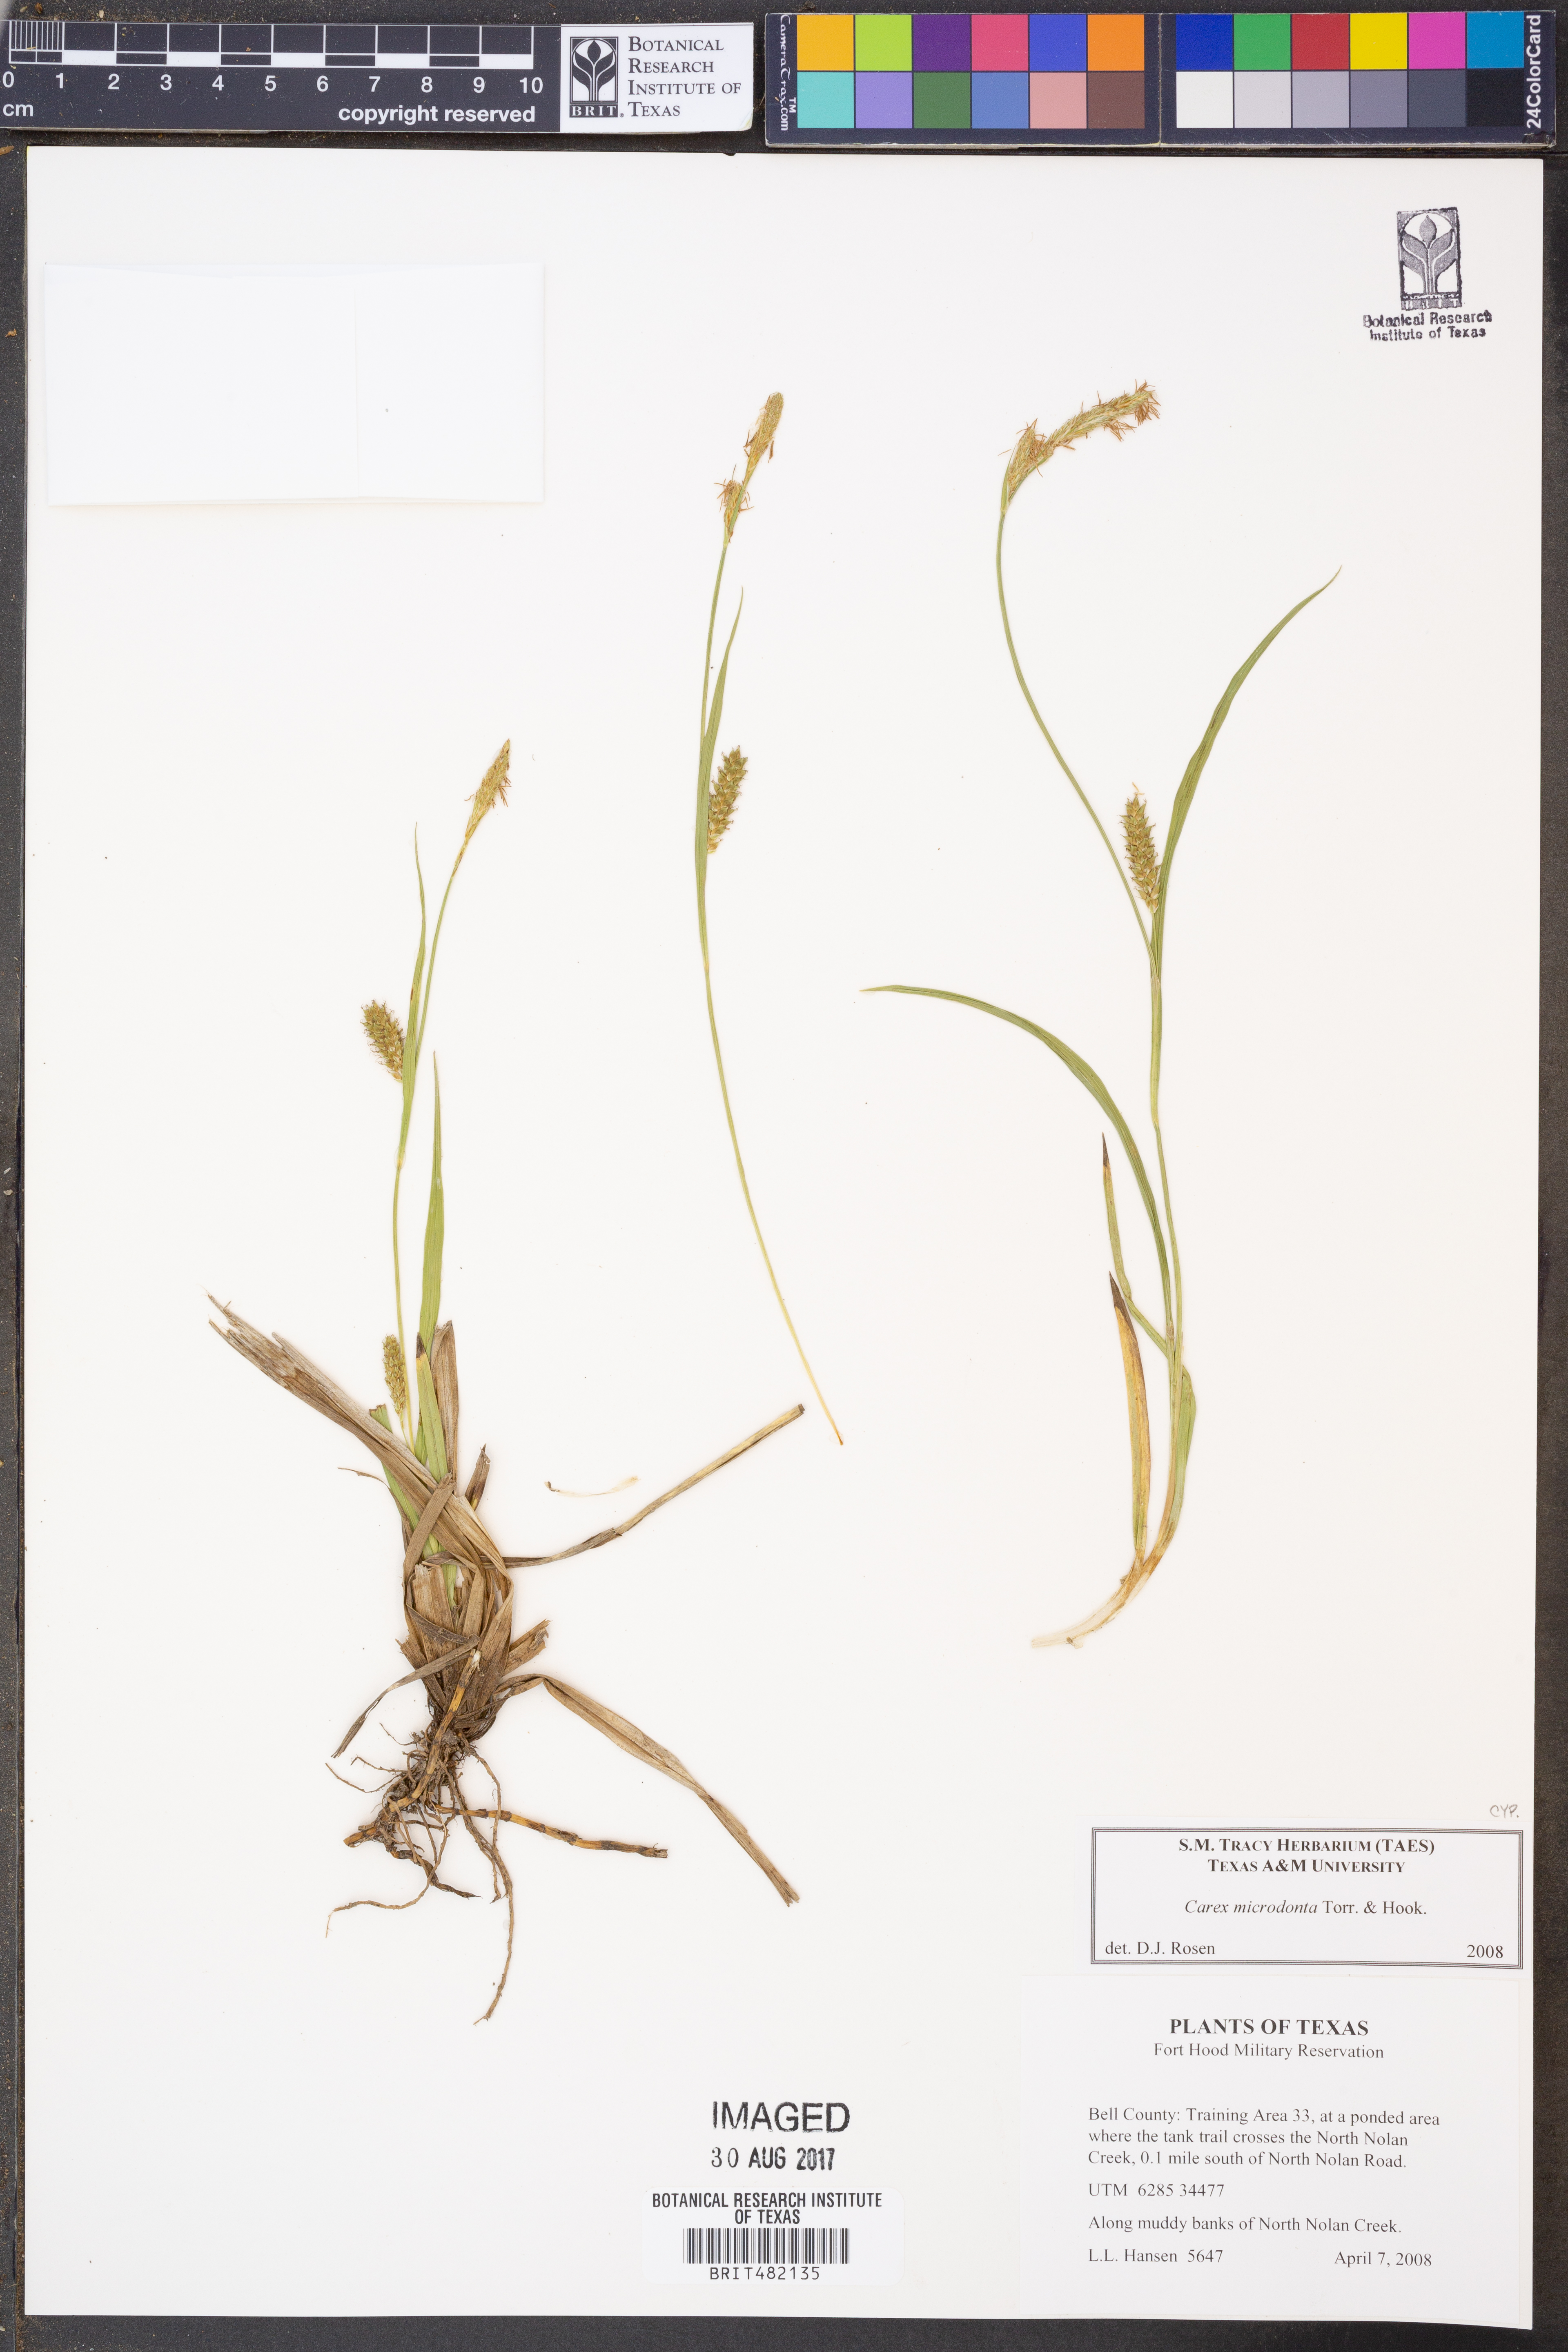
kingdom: Plantae
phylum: Tracheophyta
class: Liliopsida
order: Poales
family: Cyperaceae
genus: Carex
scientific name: Carex microdonta
